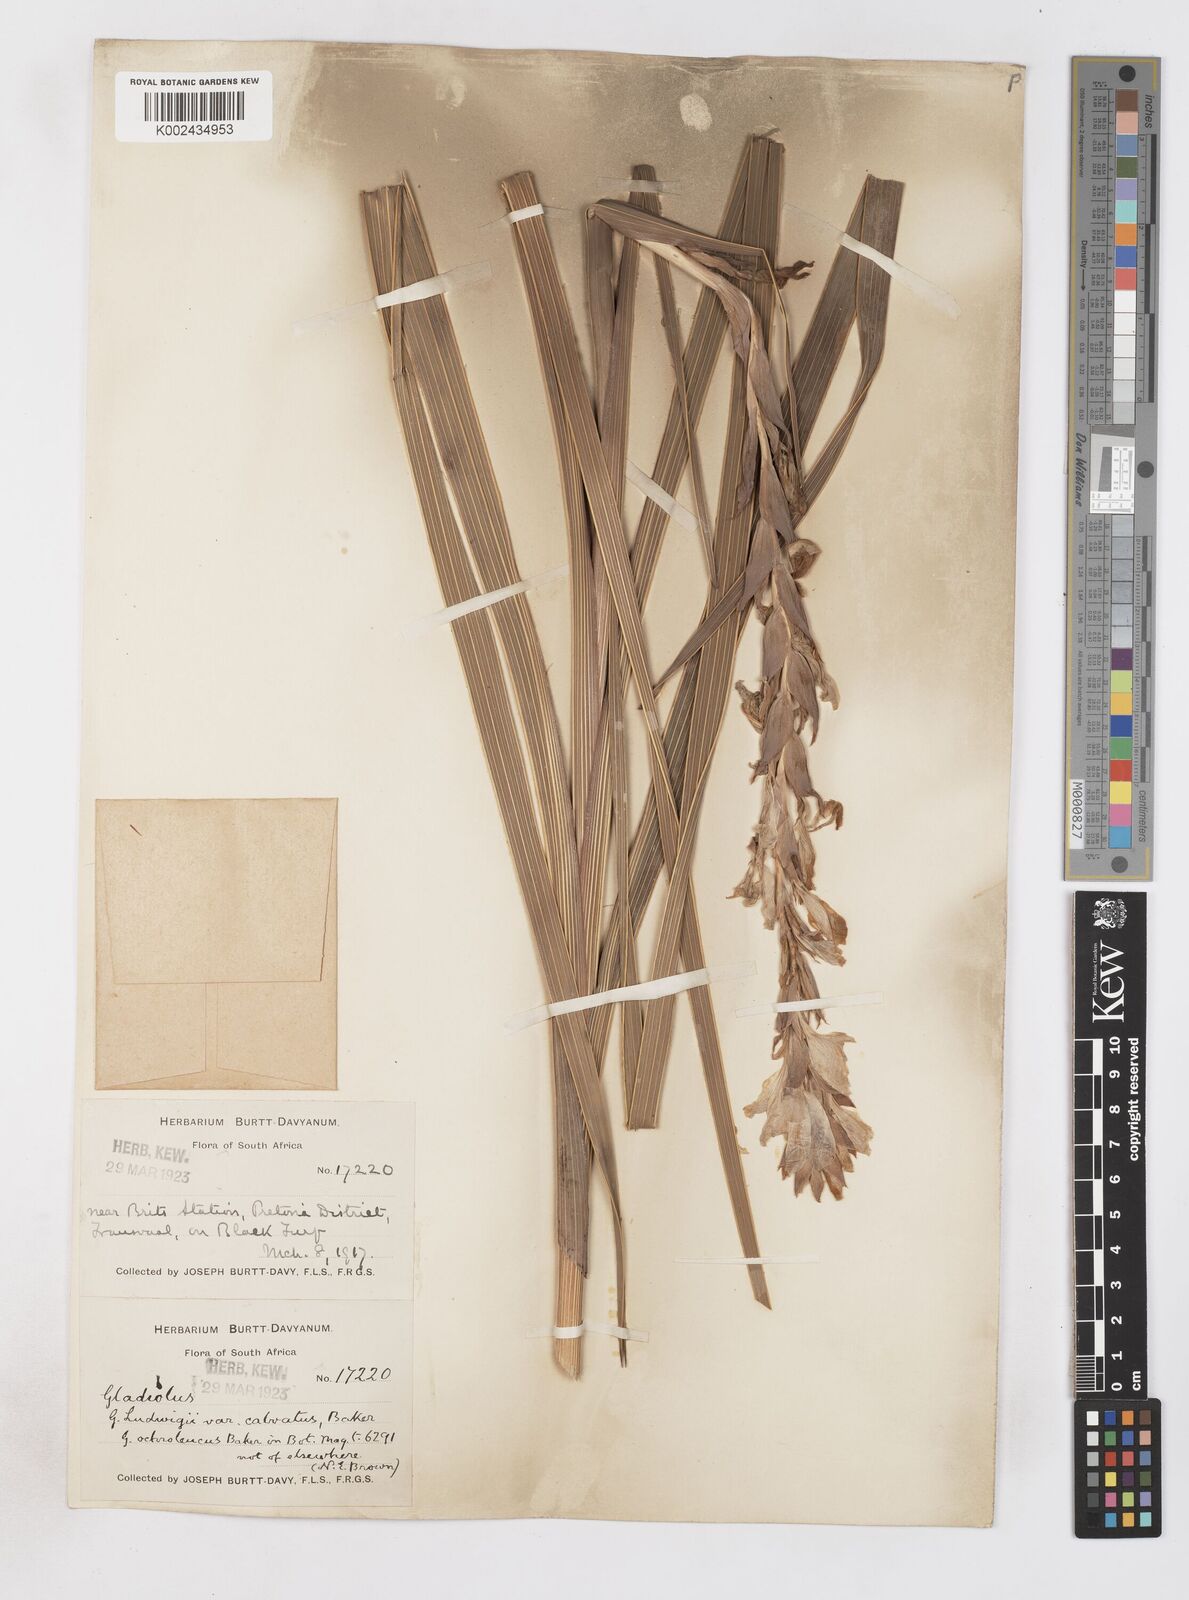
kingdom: Plantae
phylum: Tracheophyta
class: Liliopsida
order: Asparagales
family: Iridaceae
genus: Gladiolus
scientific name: Gladiolus sericeovillosus
